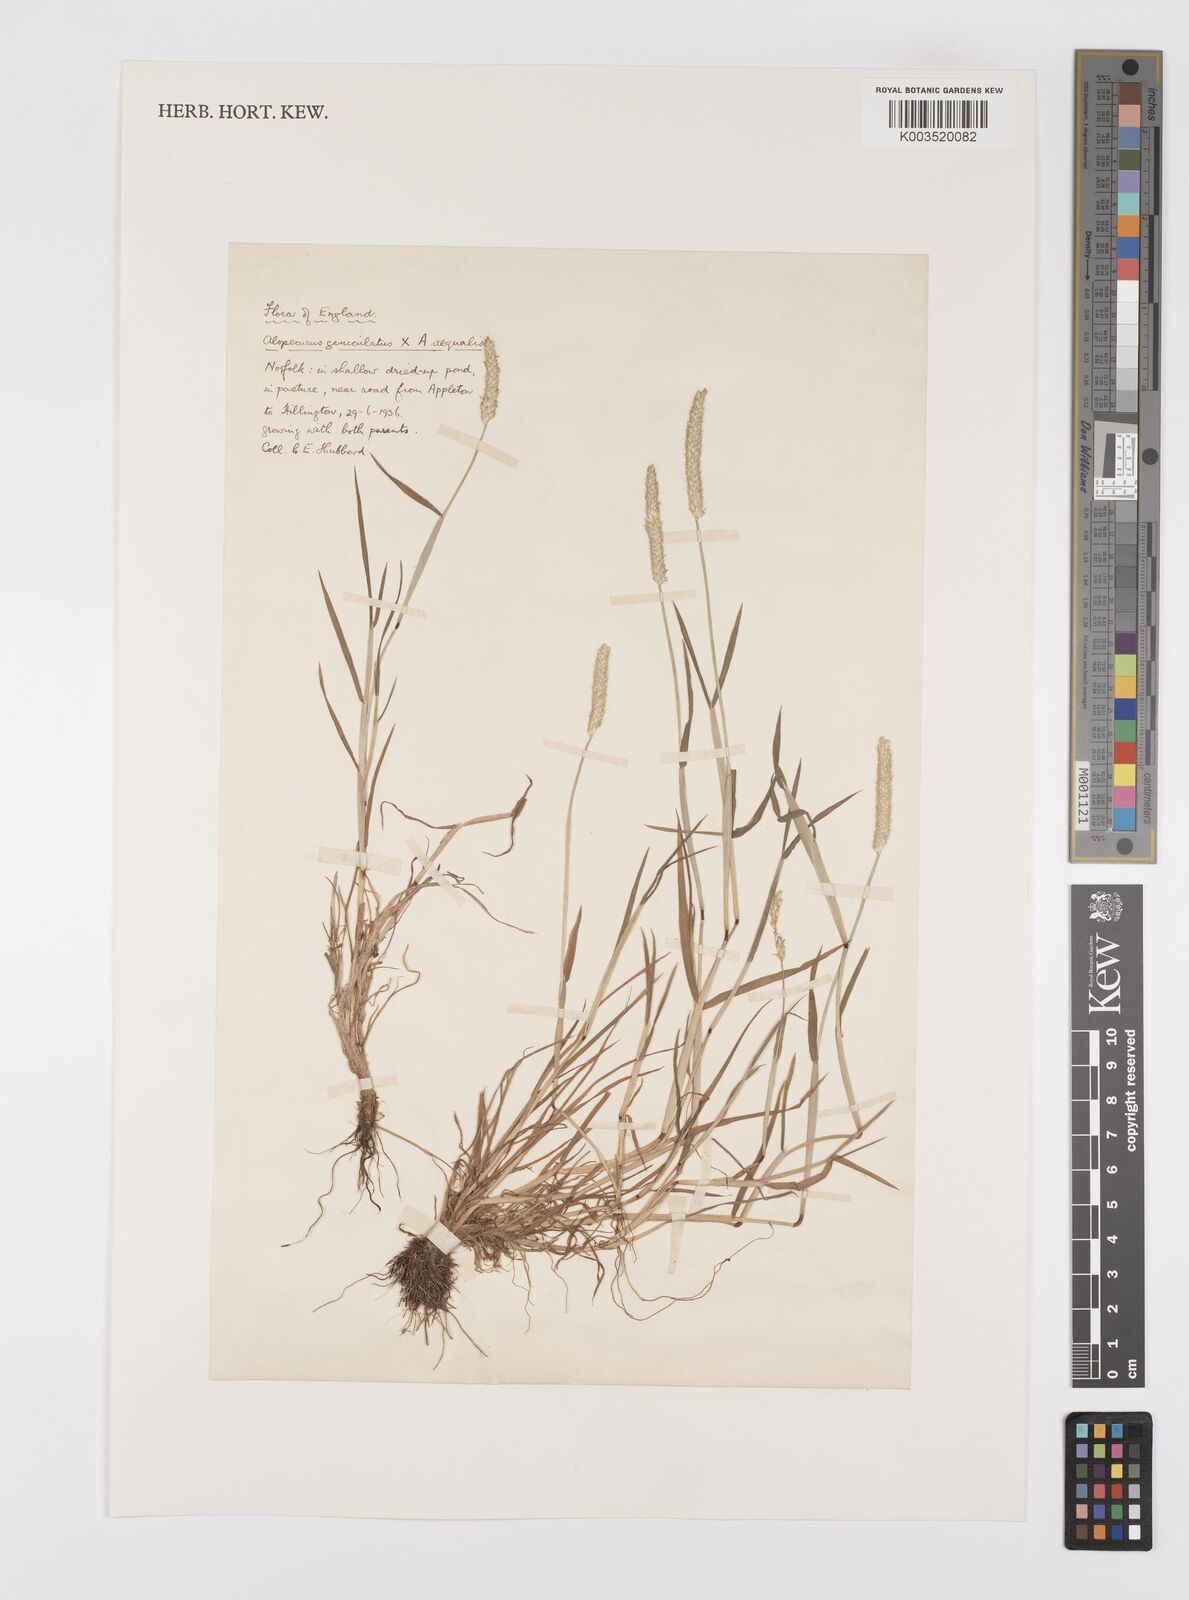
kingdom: Plantae
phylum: Tracheophyta
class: Liliopsida
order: Poales
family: Poaceae
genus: Alopecurus
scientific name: Alopecurus haussknechtianus
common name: Haussknecht's foxtail
